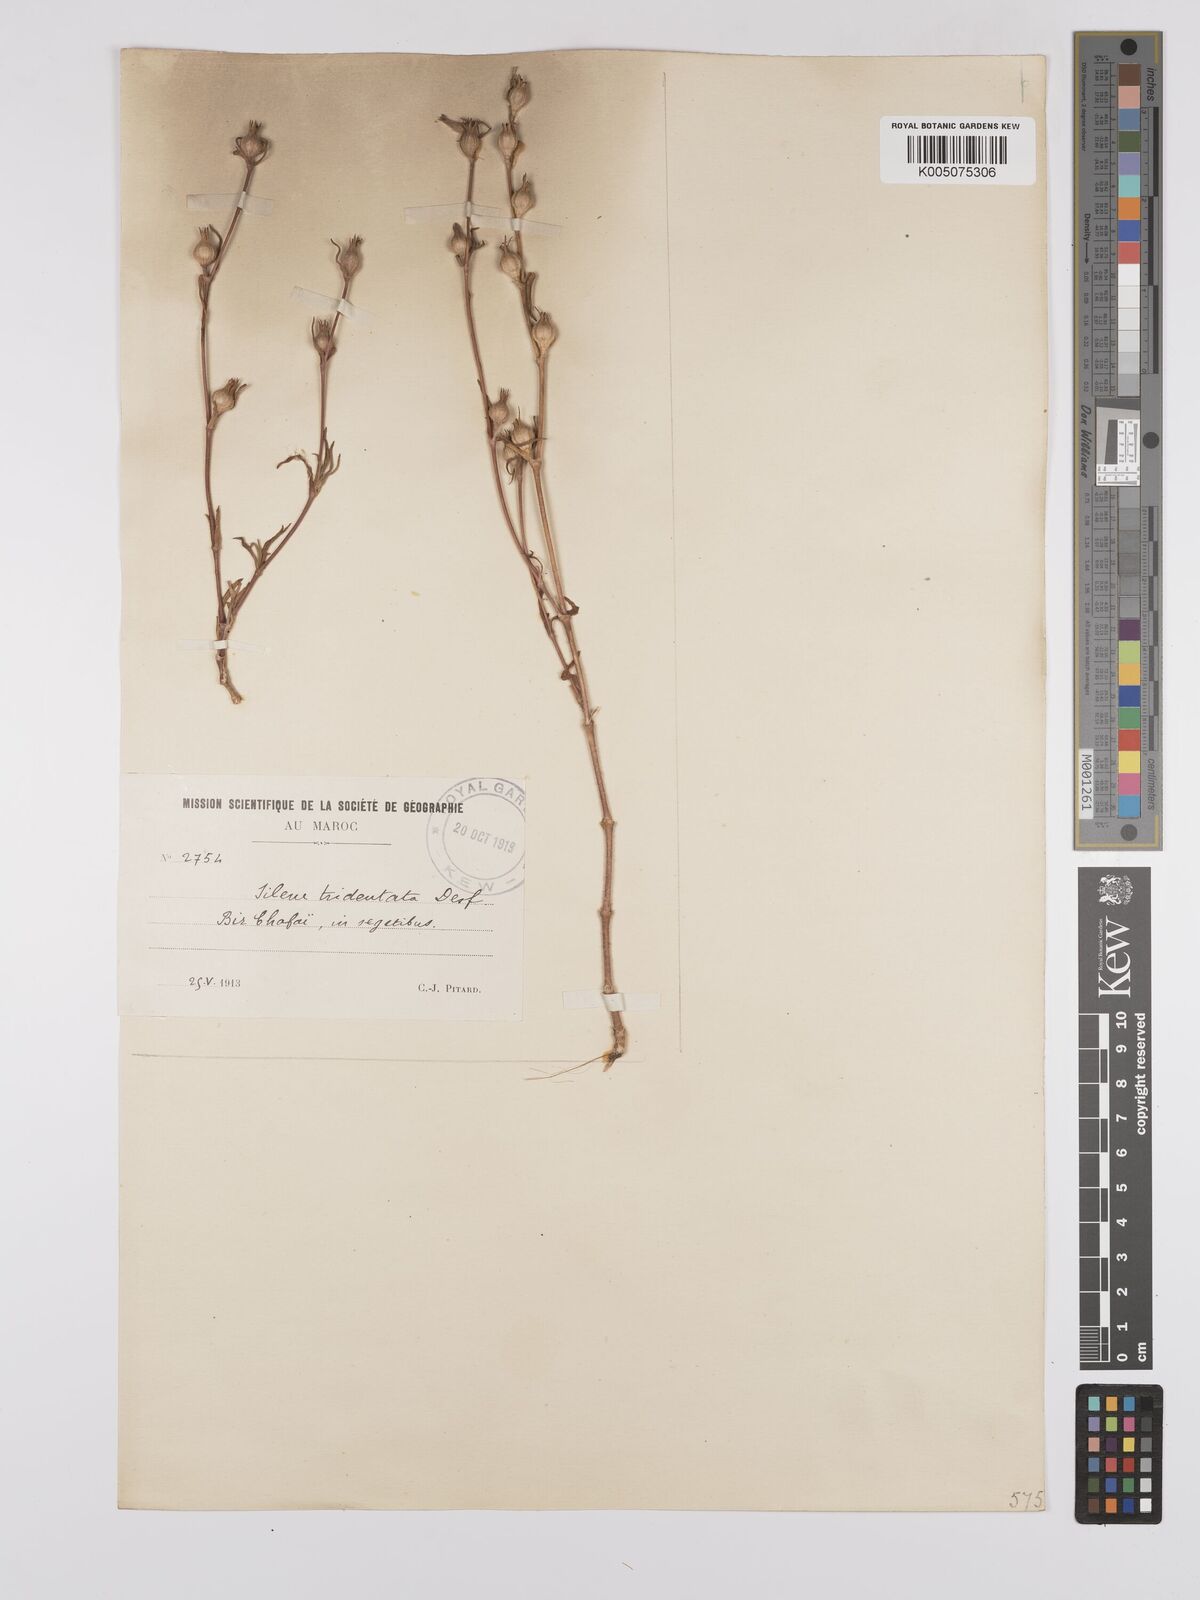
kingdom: Plantae
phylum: Tracheophyta
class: Magnoliopsida
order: Caryophyllales
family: Caryophyllaceae
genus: Silene
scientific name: Silene tridentata
